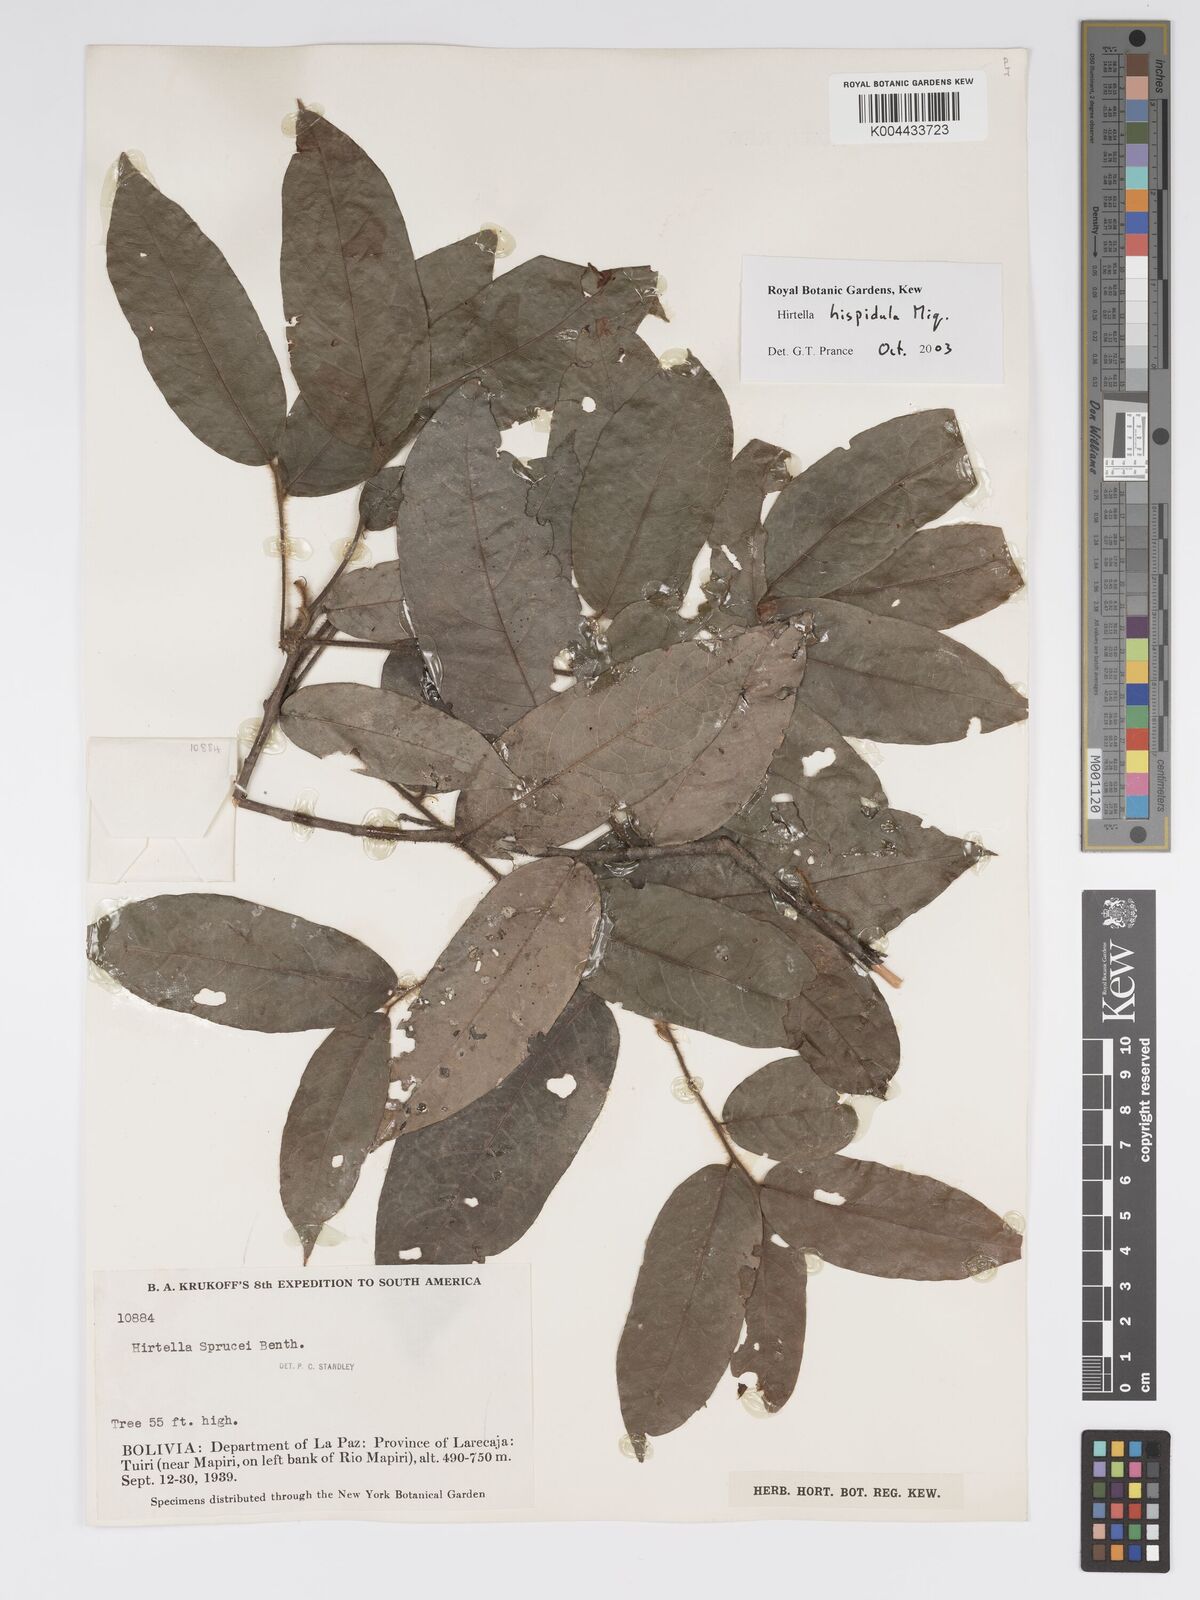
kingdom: Plantae
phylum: Tracheophyta
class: Magnoliopsida
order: Malpighiales
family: Chrysobalanaceae
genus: Hirtella
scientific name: Hirtella hispidula
